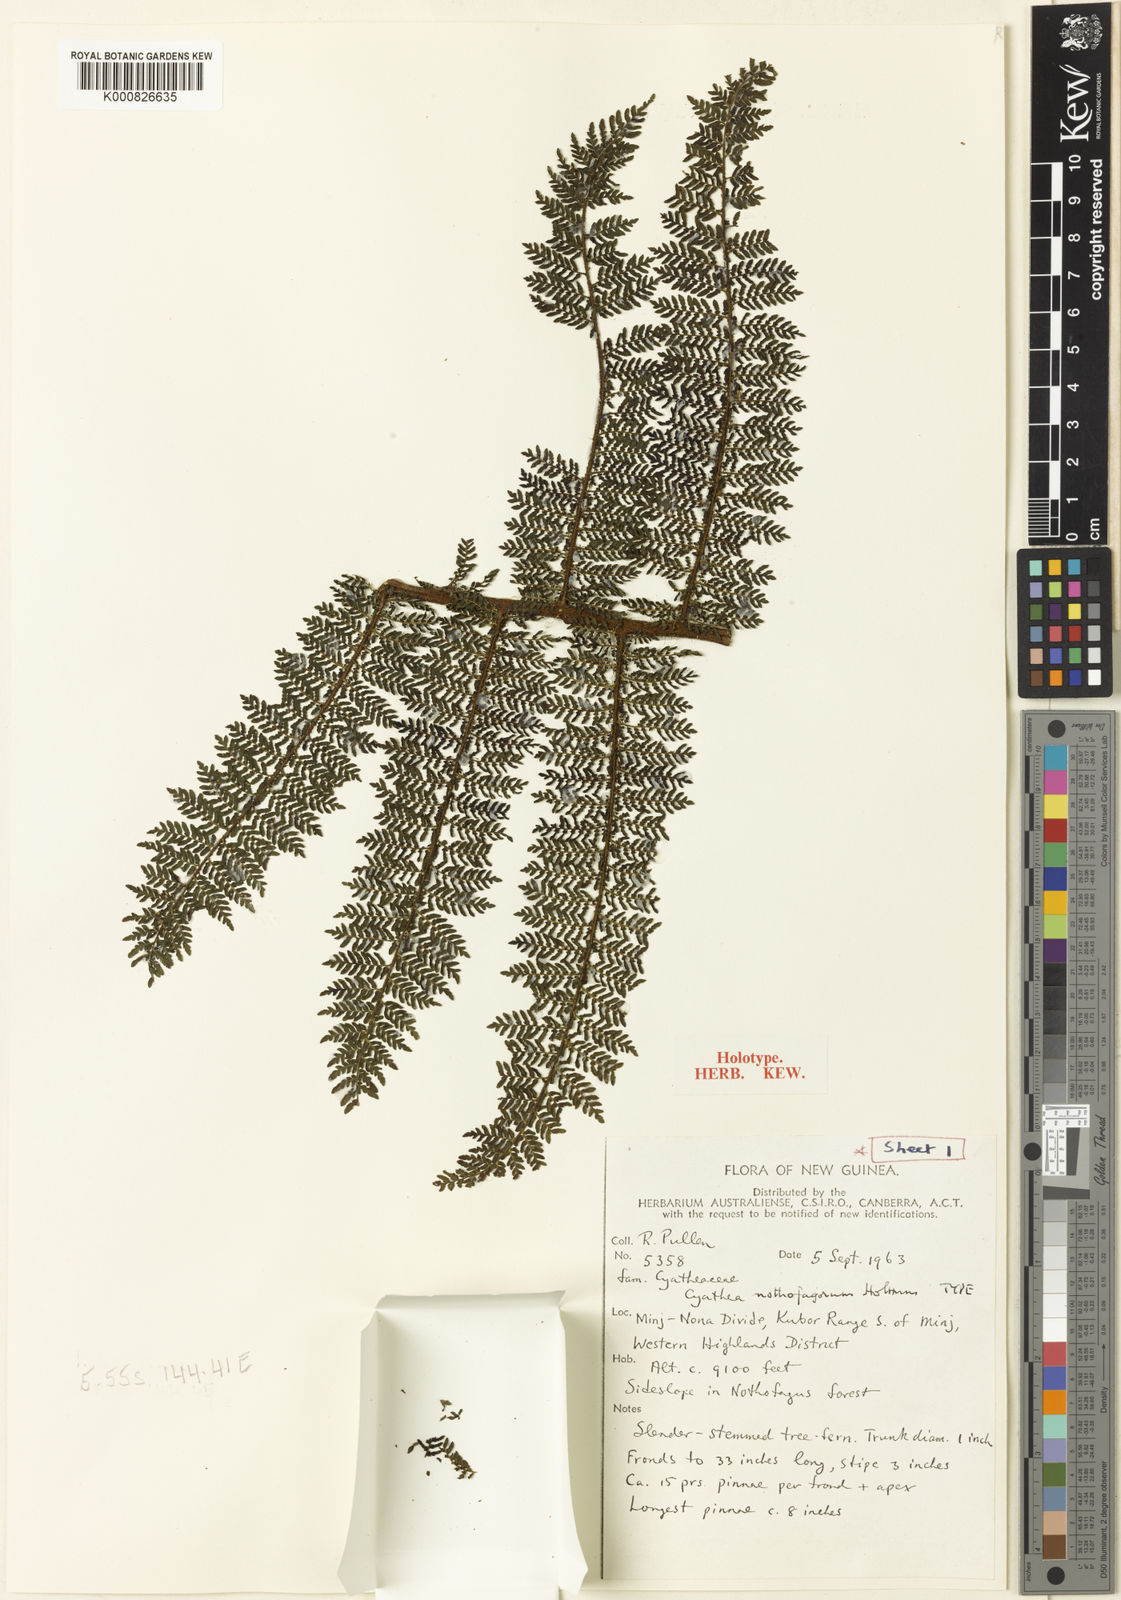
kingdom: Plantae
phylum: Tracheophyta
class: Polypodiopsida
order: Cyatheales
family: Cyatheaceae
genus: Alsophila
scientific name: Alsophila nothofagorum
